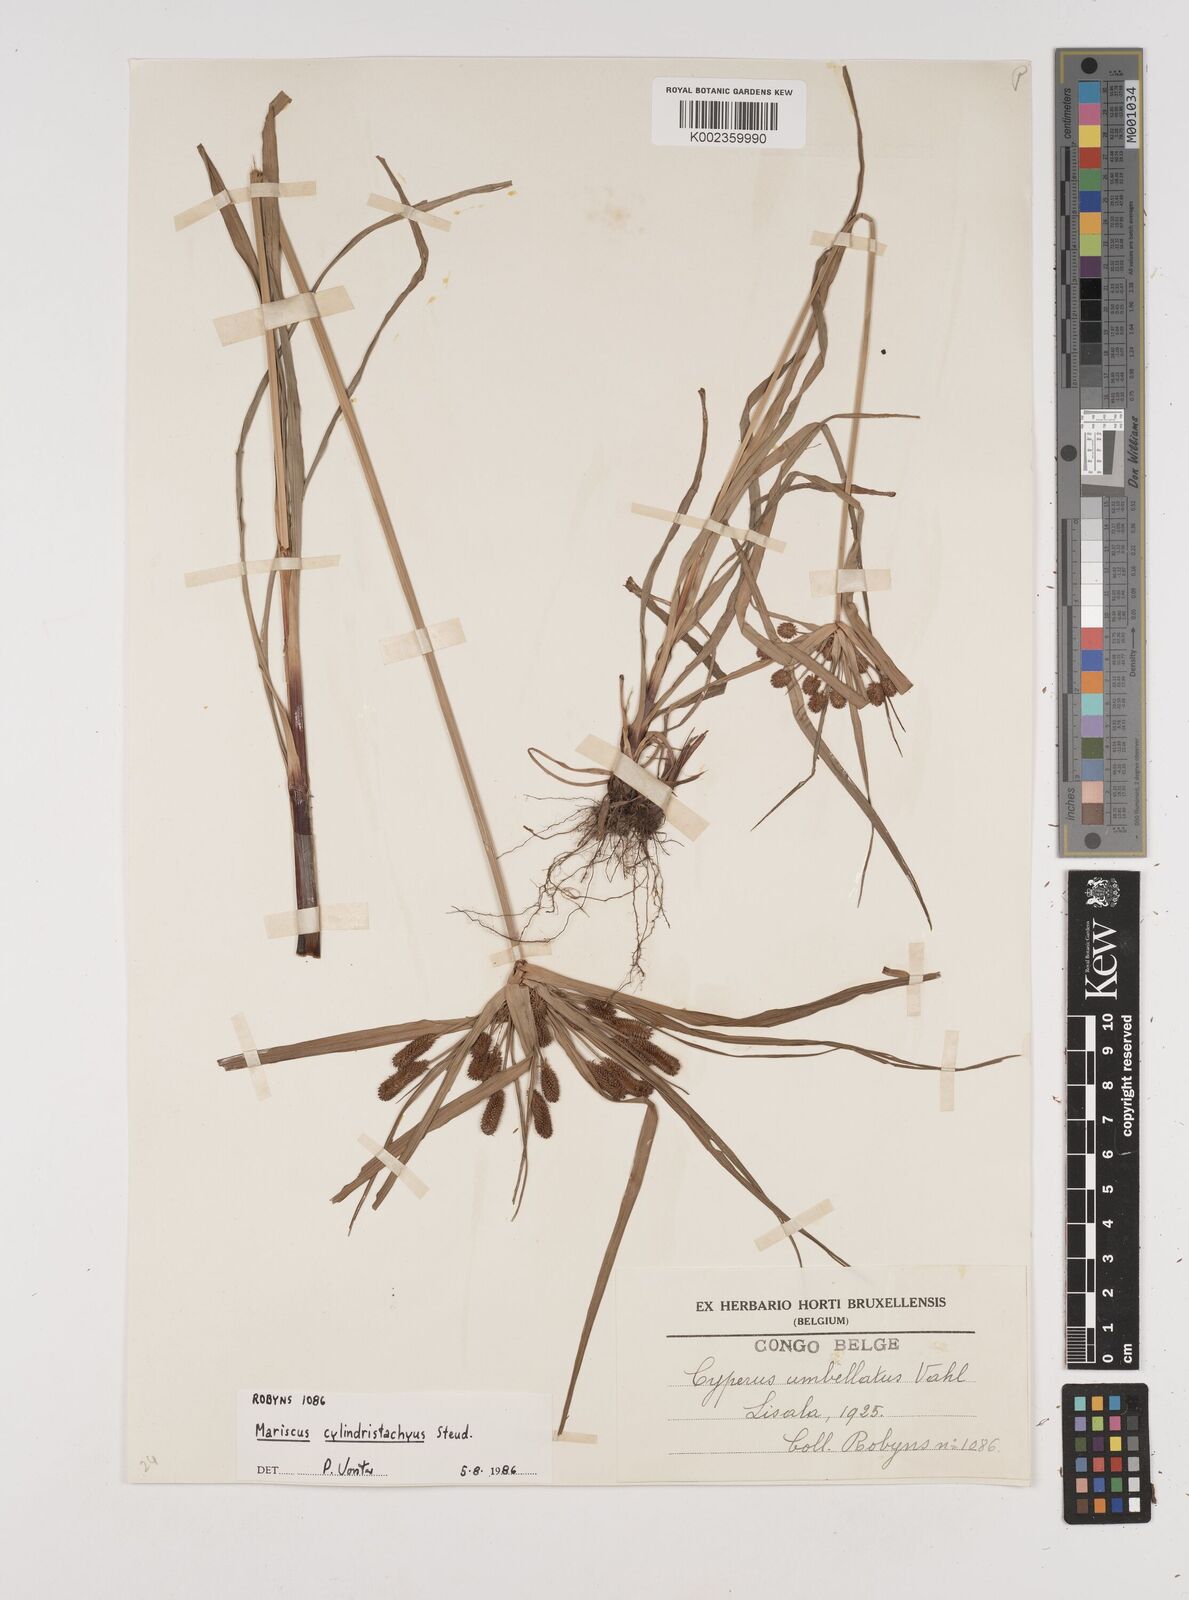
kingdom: Plantae
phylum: Tracheophyta
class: Liliopsida
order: Poales
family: Cyperaceae
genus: Cyperus
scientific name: Cyperus cyperoides
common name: Pacific island flat sedge
